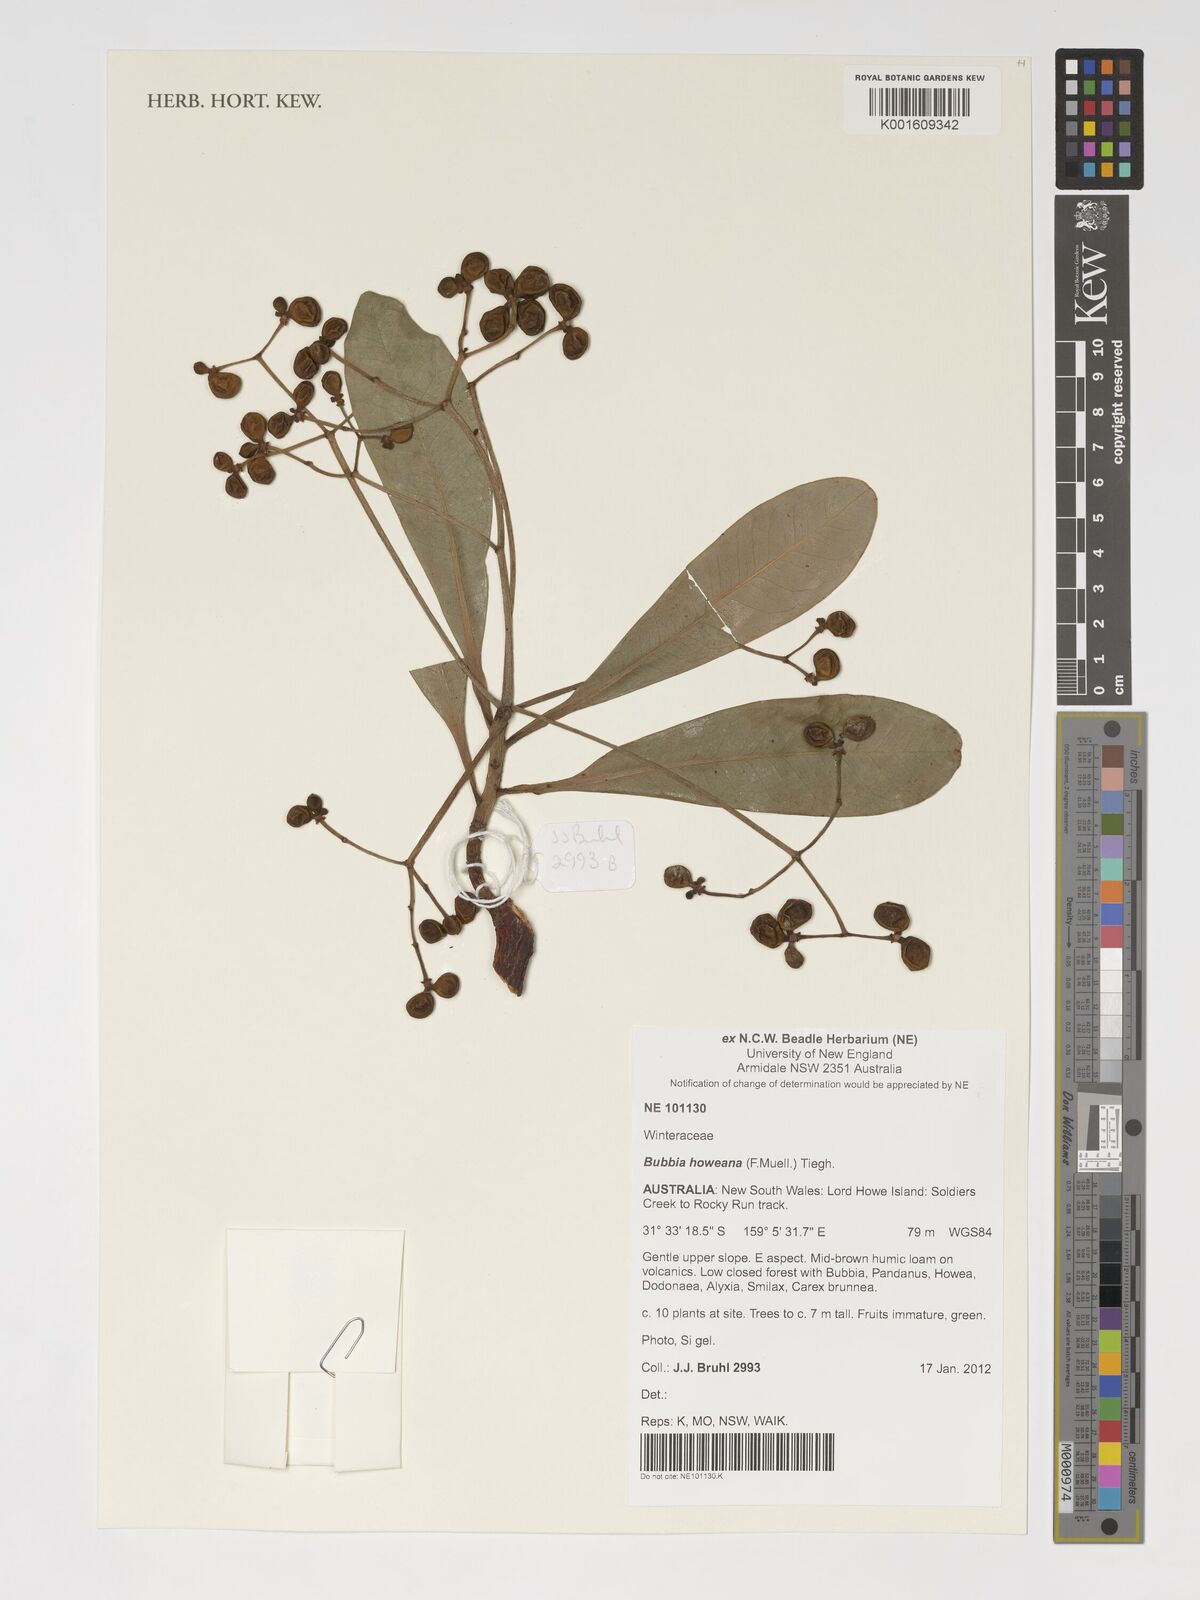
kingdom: Plantae
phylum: Tracheophyta
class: Magnoliopsida
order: Canellales
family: Winteraceae
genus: Zygogynum
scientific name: Zygogynum howeanum
